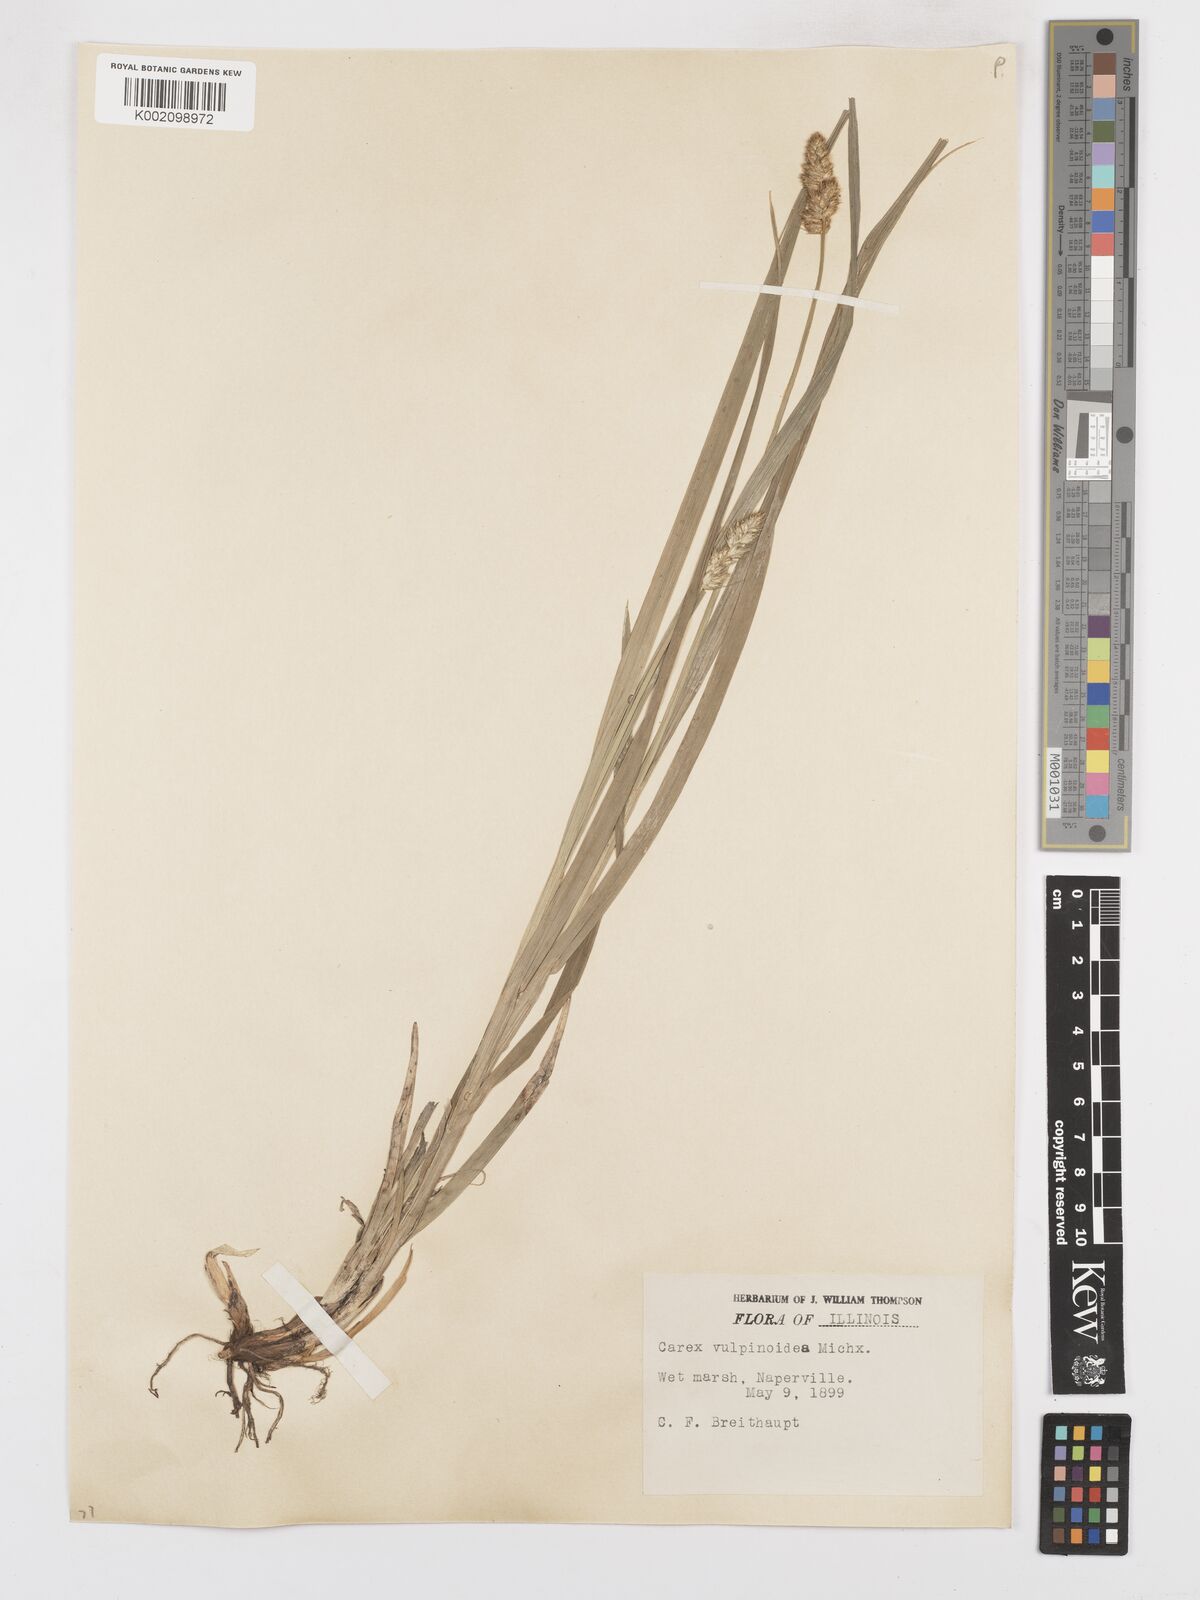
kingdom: Plantae
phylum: Tracheophyta
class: Liliopsida
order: Poales
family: Cyperaceae
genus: Carex
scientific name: Carex vulpinoidea
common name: American fox-sedge
